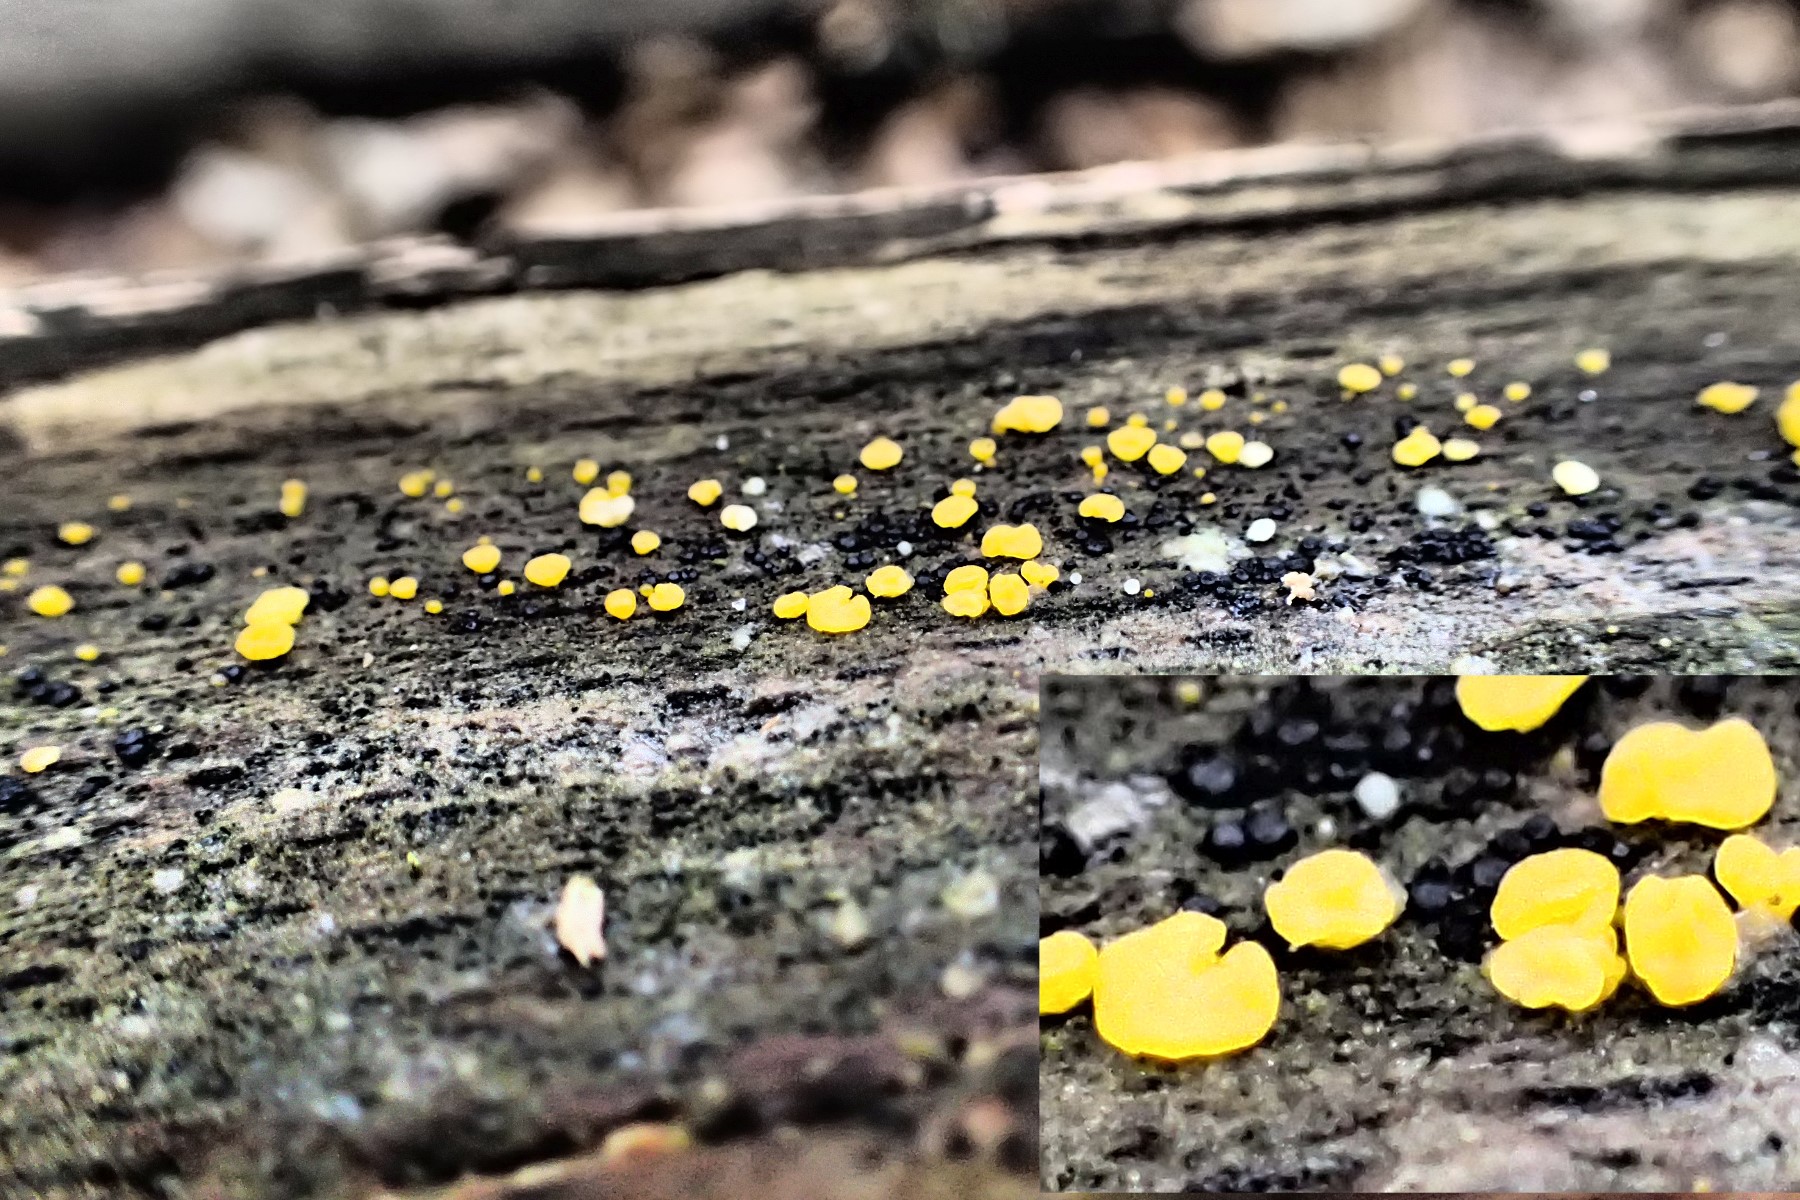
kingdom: Fungi
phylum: Ascomycota
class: Leotiomycetes
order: Helotiales
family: Pezizellaceae
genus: Calycina
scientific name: Calycina
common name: gulskive
